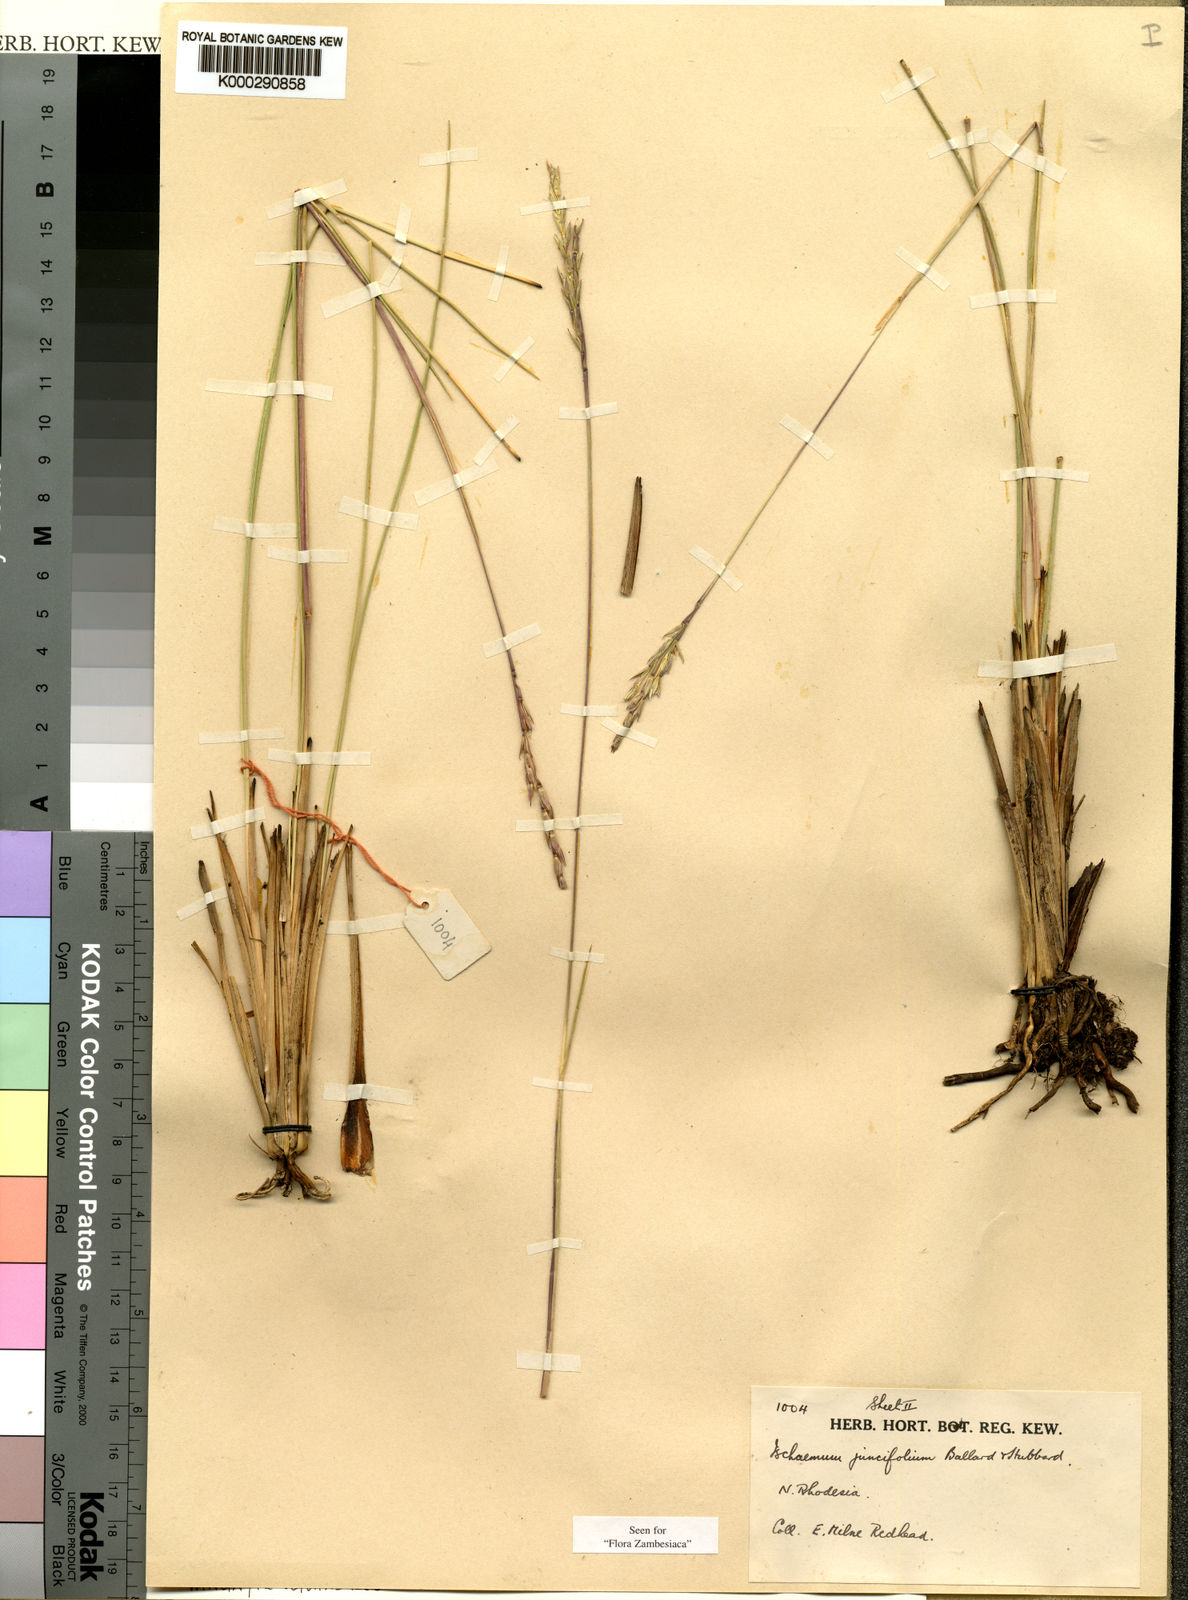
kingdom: Plantae
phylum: Tracheophyta
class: Liliopsida
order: Poales
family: Poaceae
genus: Phacelurus
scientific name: Phacelurus franksiae
